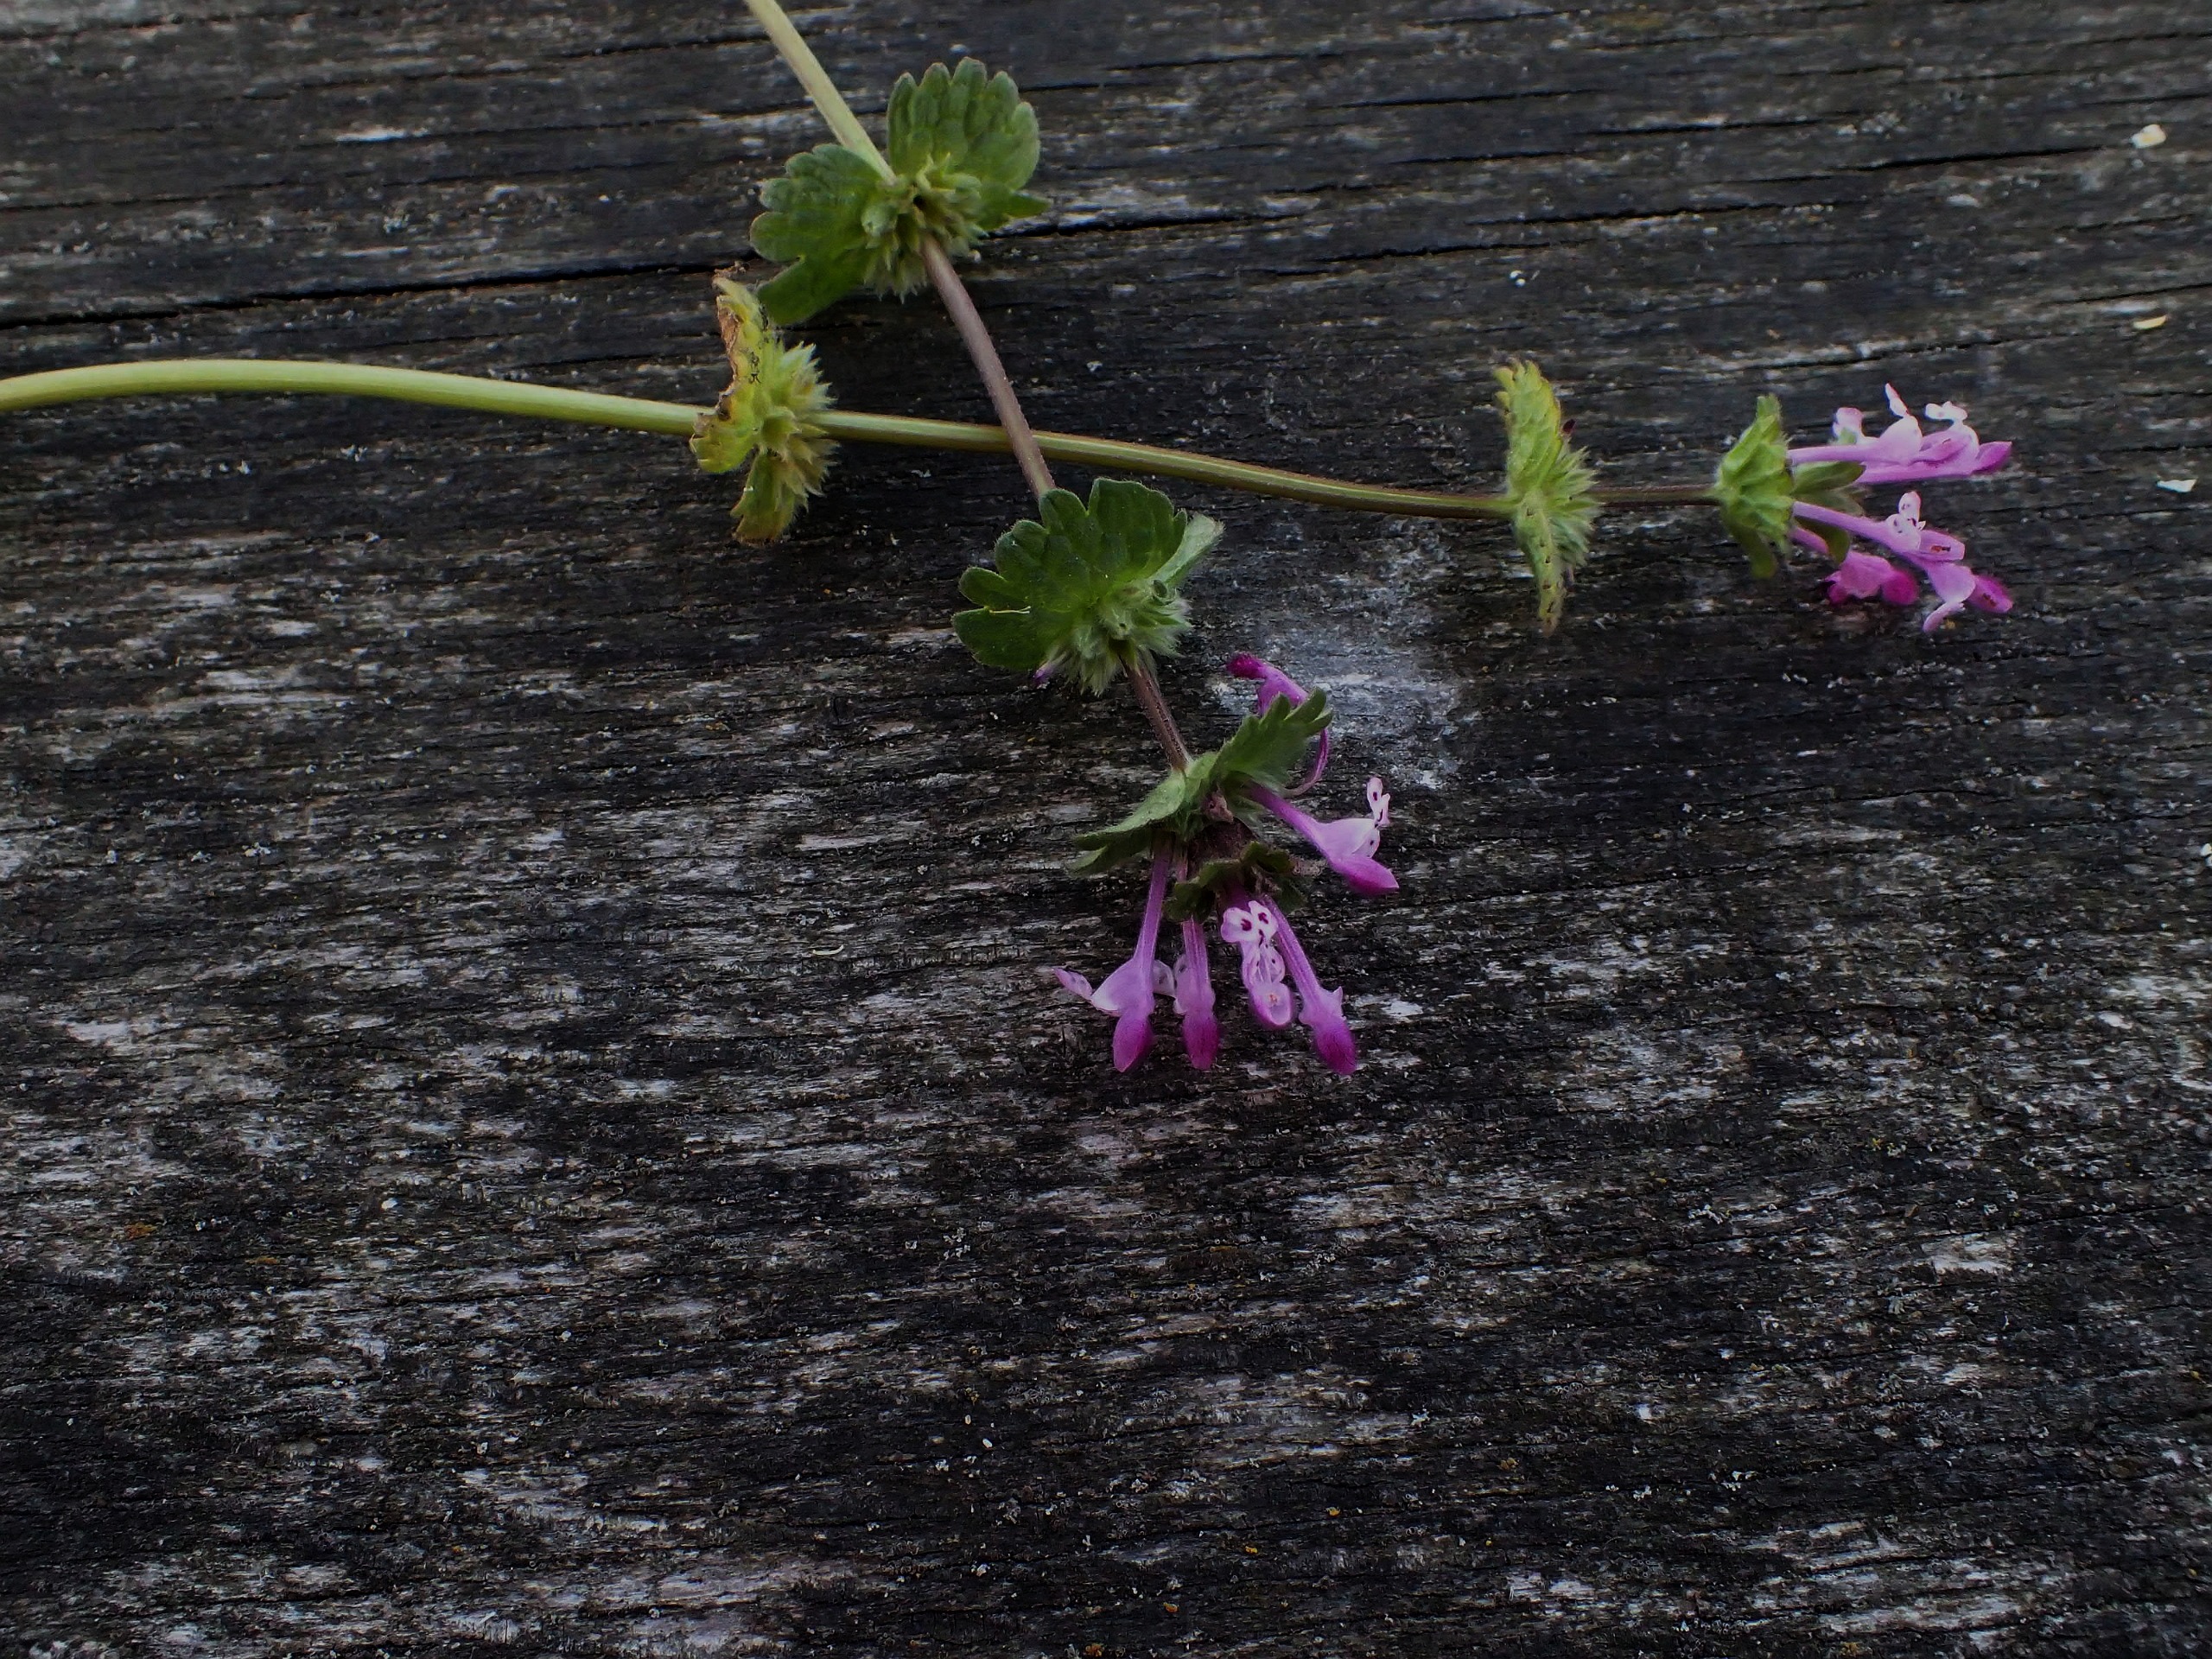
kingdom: Plantae
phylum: Tracheophyta
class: Magnoliopsida
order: Lamiales
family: Lamiaceae
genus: Lamium
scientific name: Lamium amplexicaule
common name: Liden tvetand
